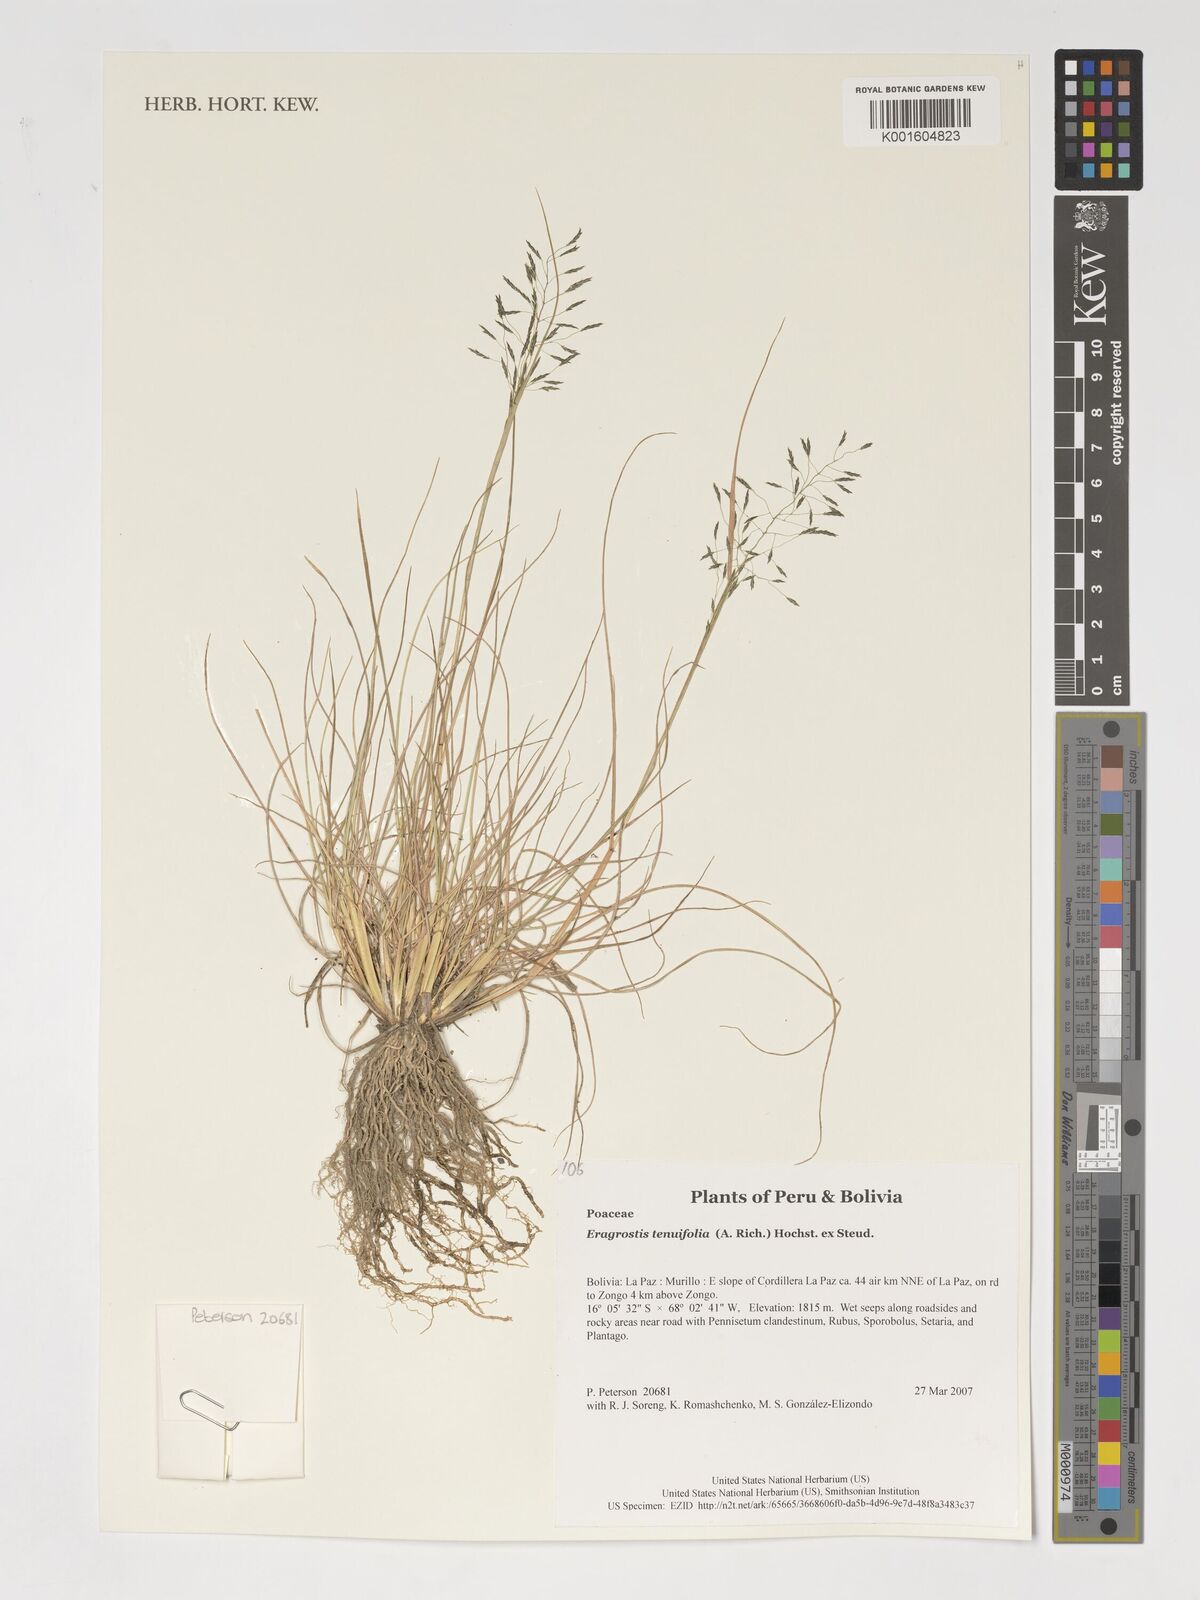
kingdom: Plantae
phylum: Tracheophyta
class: Liliopsida
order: Poales
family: Poaceae
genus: Eragrostis
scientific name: Eragrostis tenuifolia
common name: Elastic grass
